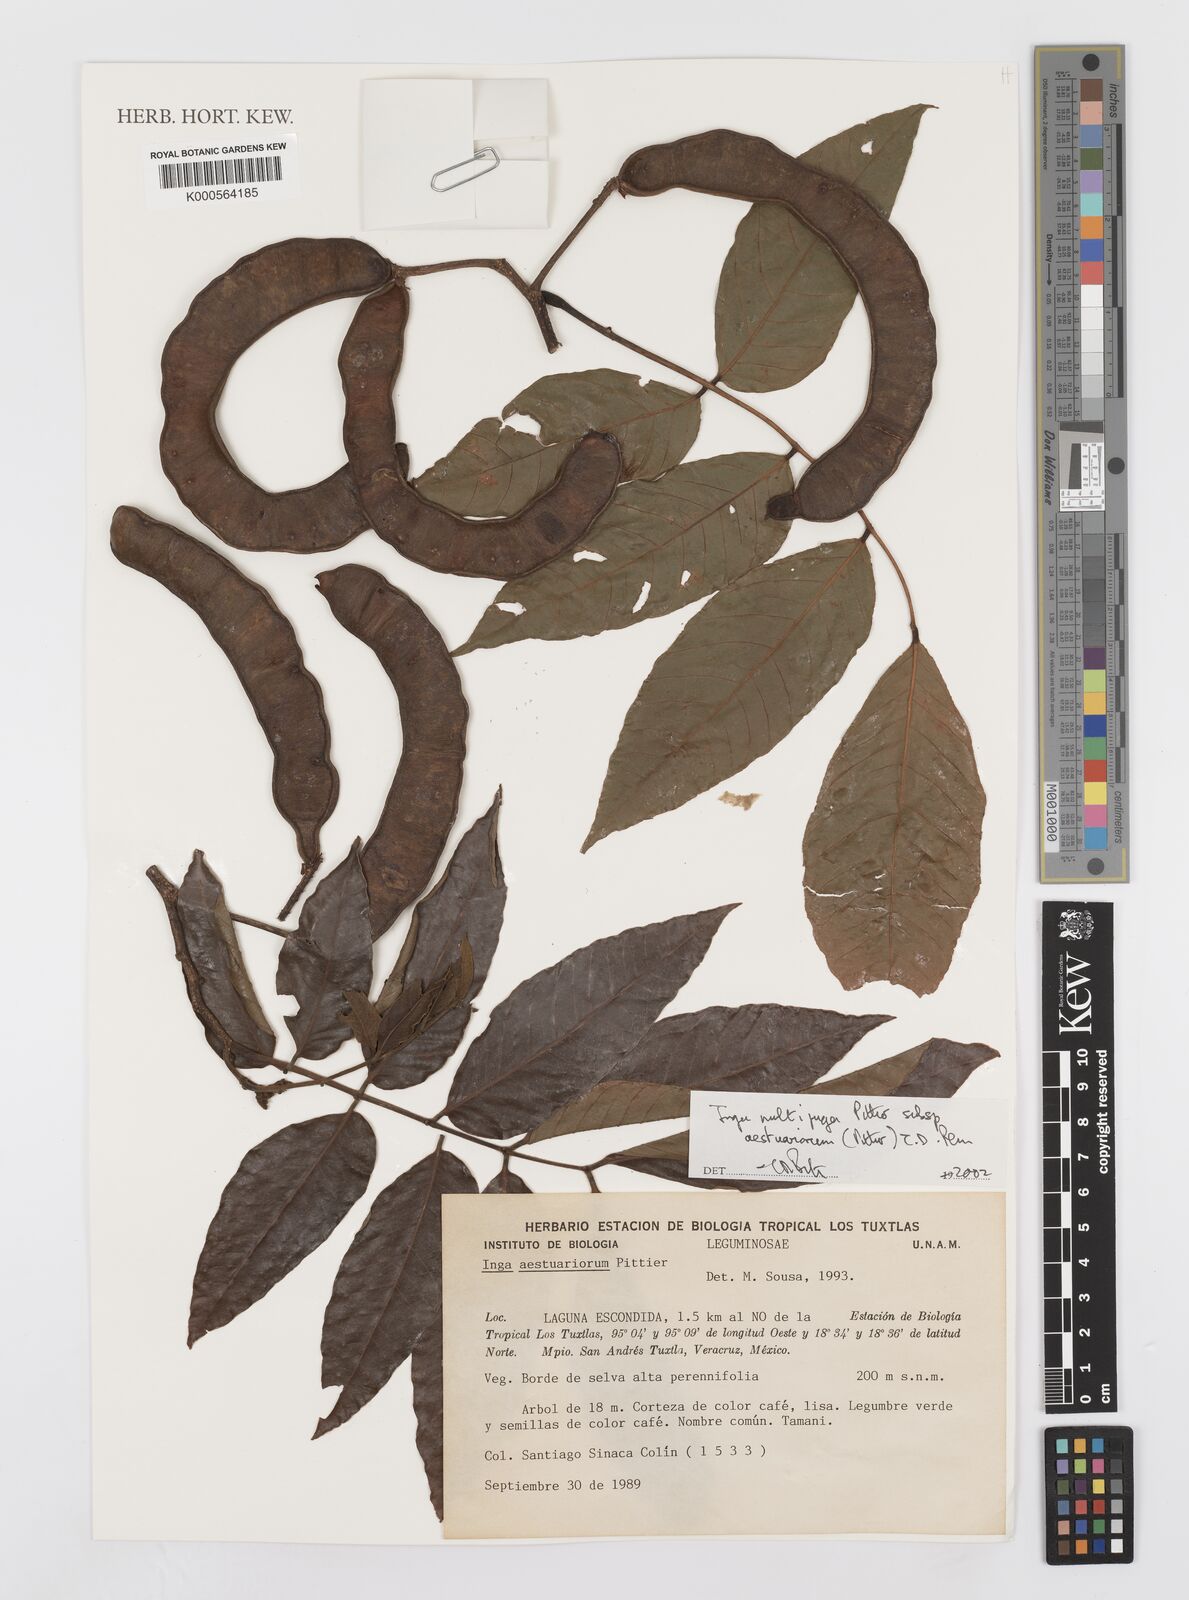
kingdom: Plantae
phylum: Tracheophyta
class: Magnoliopsida
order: Fabales
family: Fabaceae
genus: Inga
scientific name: Inga multijuga
